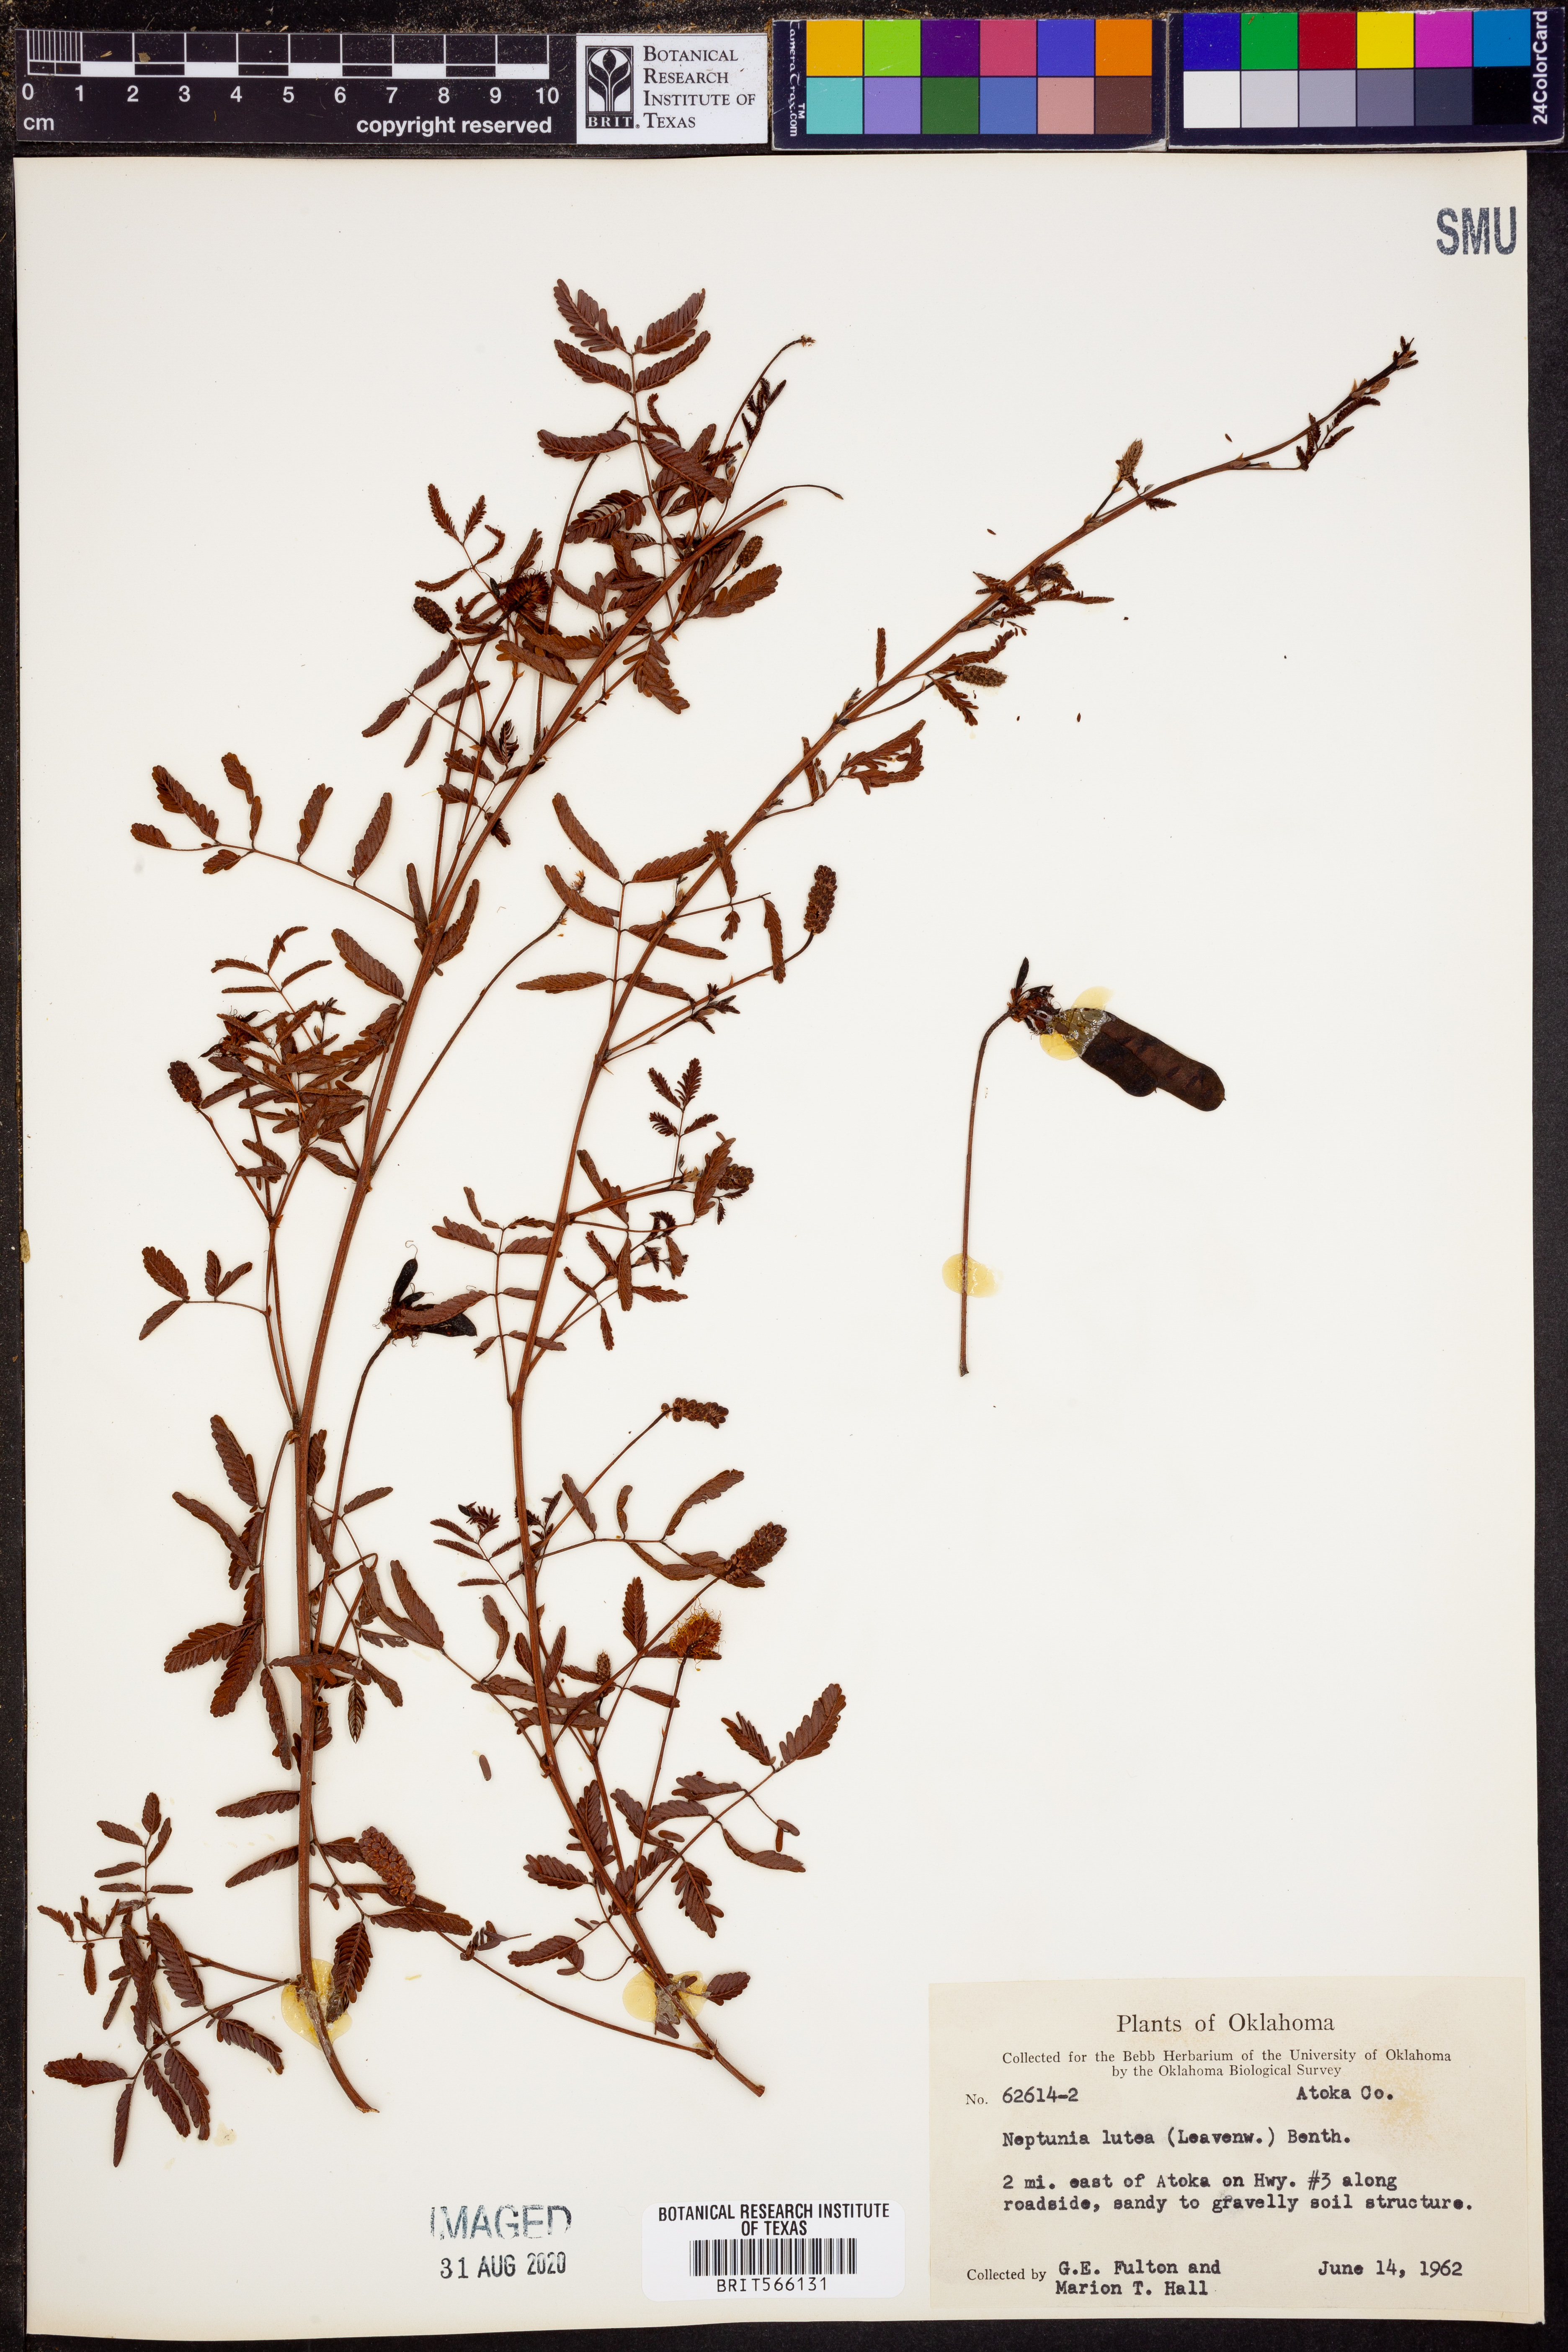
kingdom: Plantae
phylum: Tracheophyta
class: Magnoliopsida
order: Fabales
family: Fabaceae
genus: Neptunia
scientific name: Neptunia lutea
